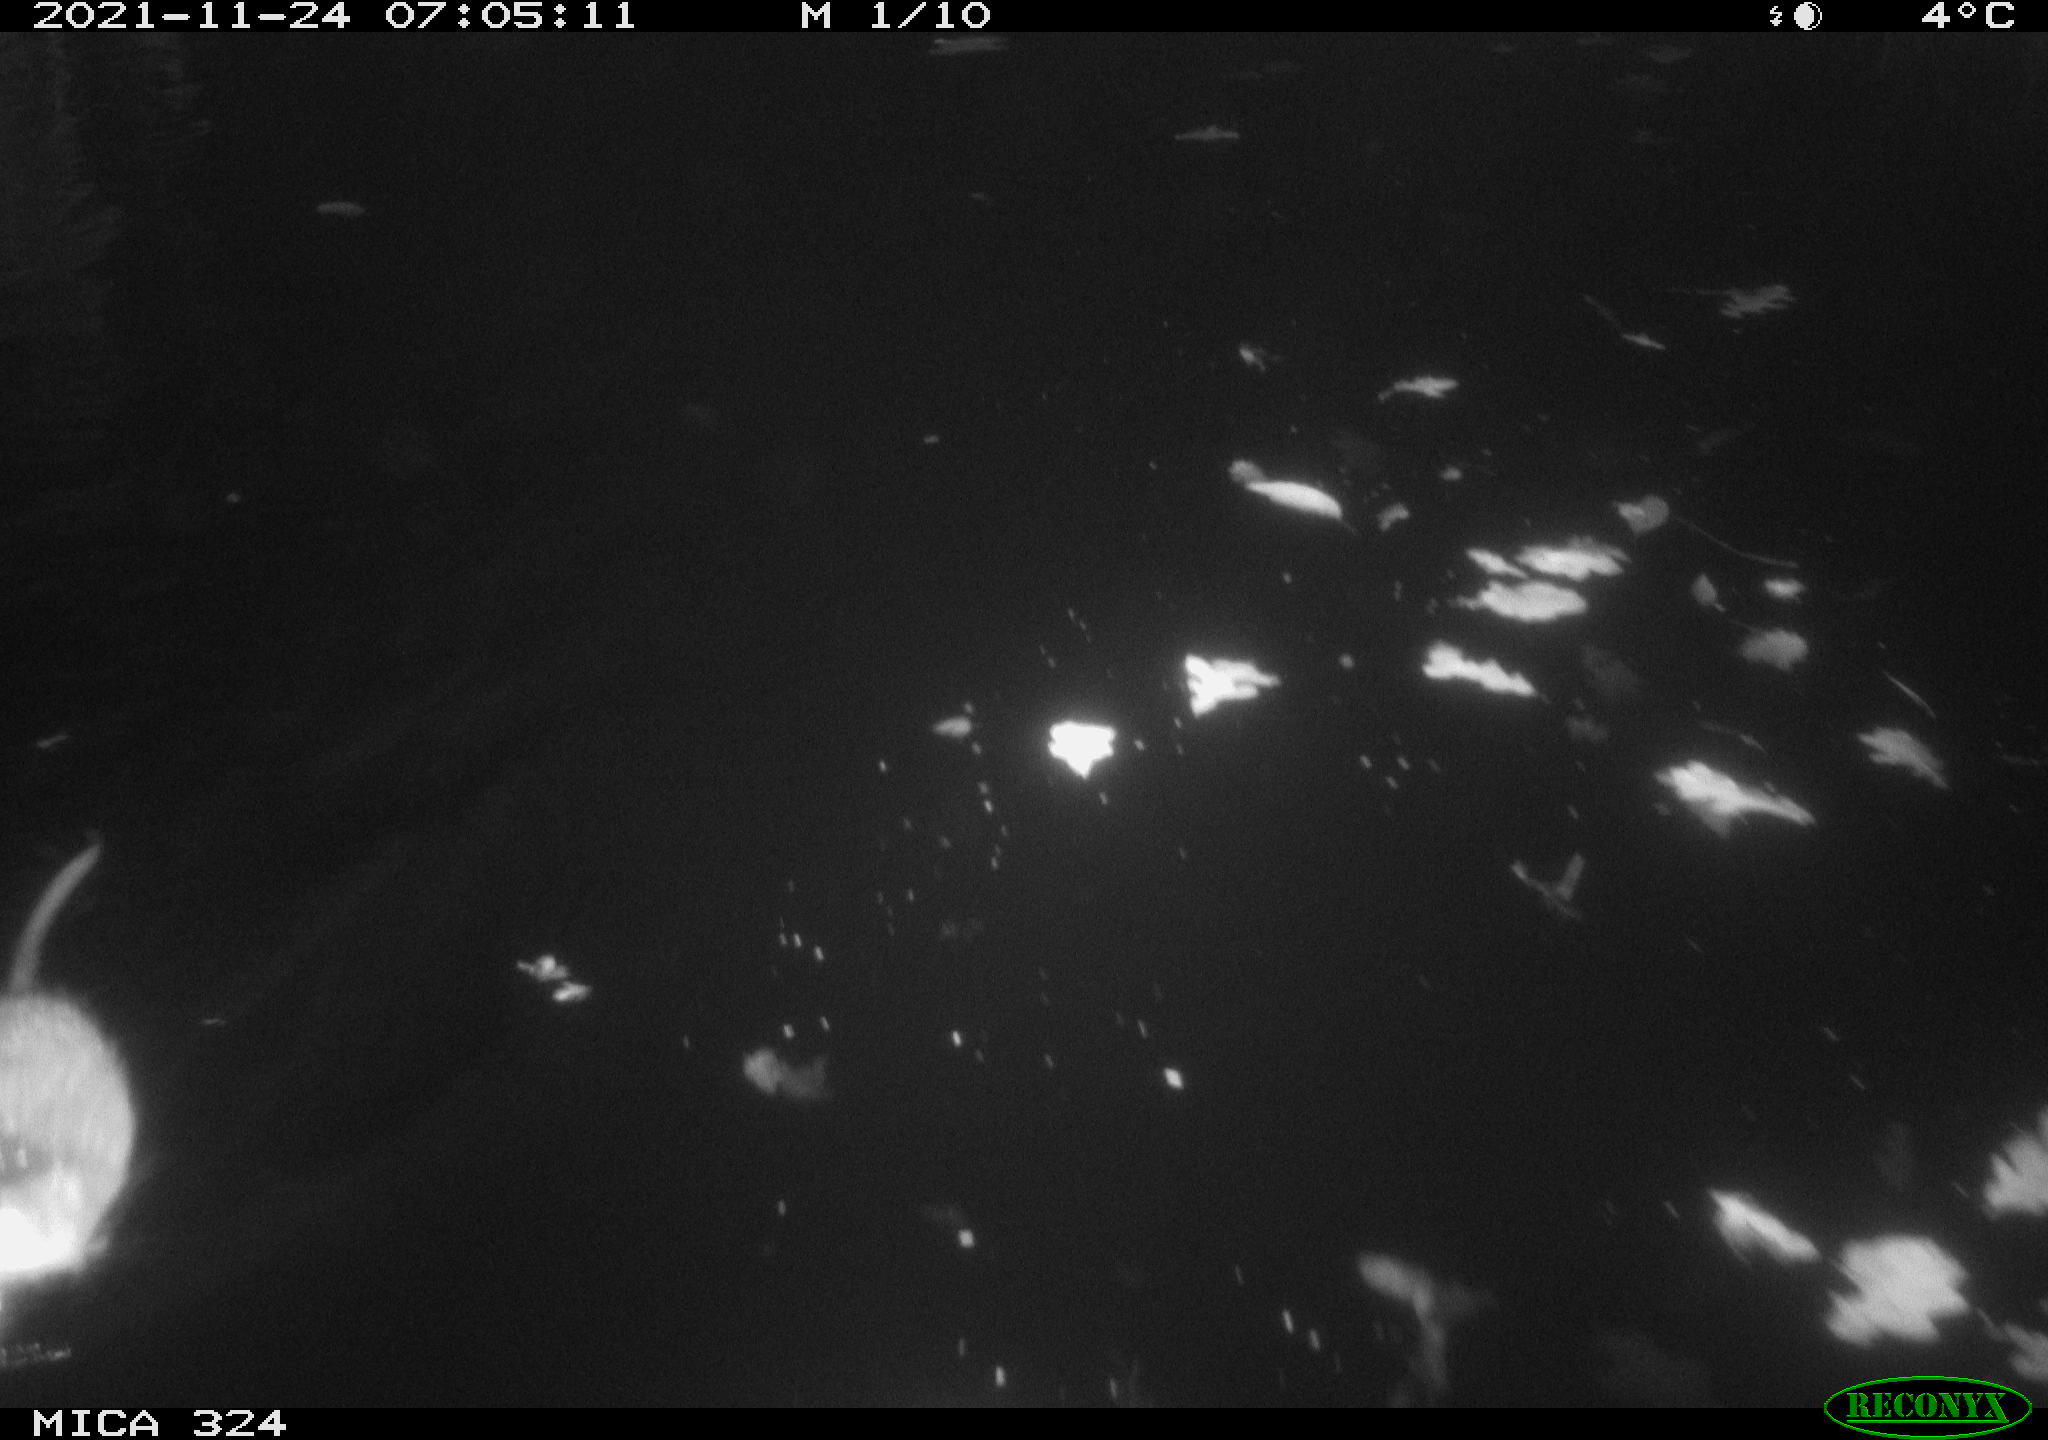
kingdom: Animalia
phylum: Chordata
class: Mammalia
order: Rodentia
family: Cricetidae
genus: Ondatra
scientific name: Ondatra zibethicus
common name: Muskrat
